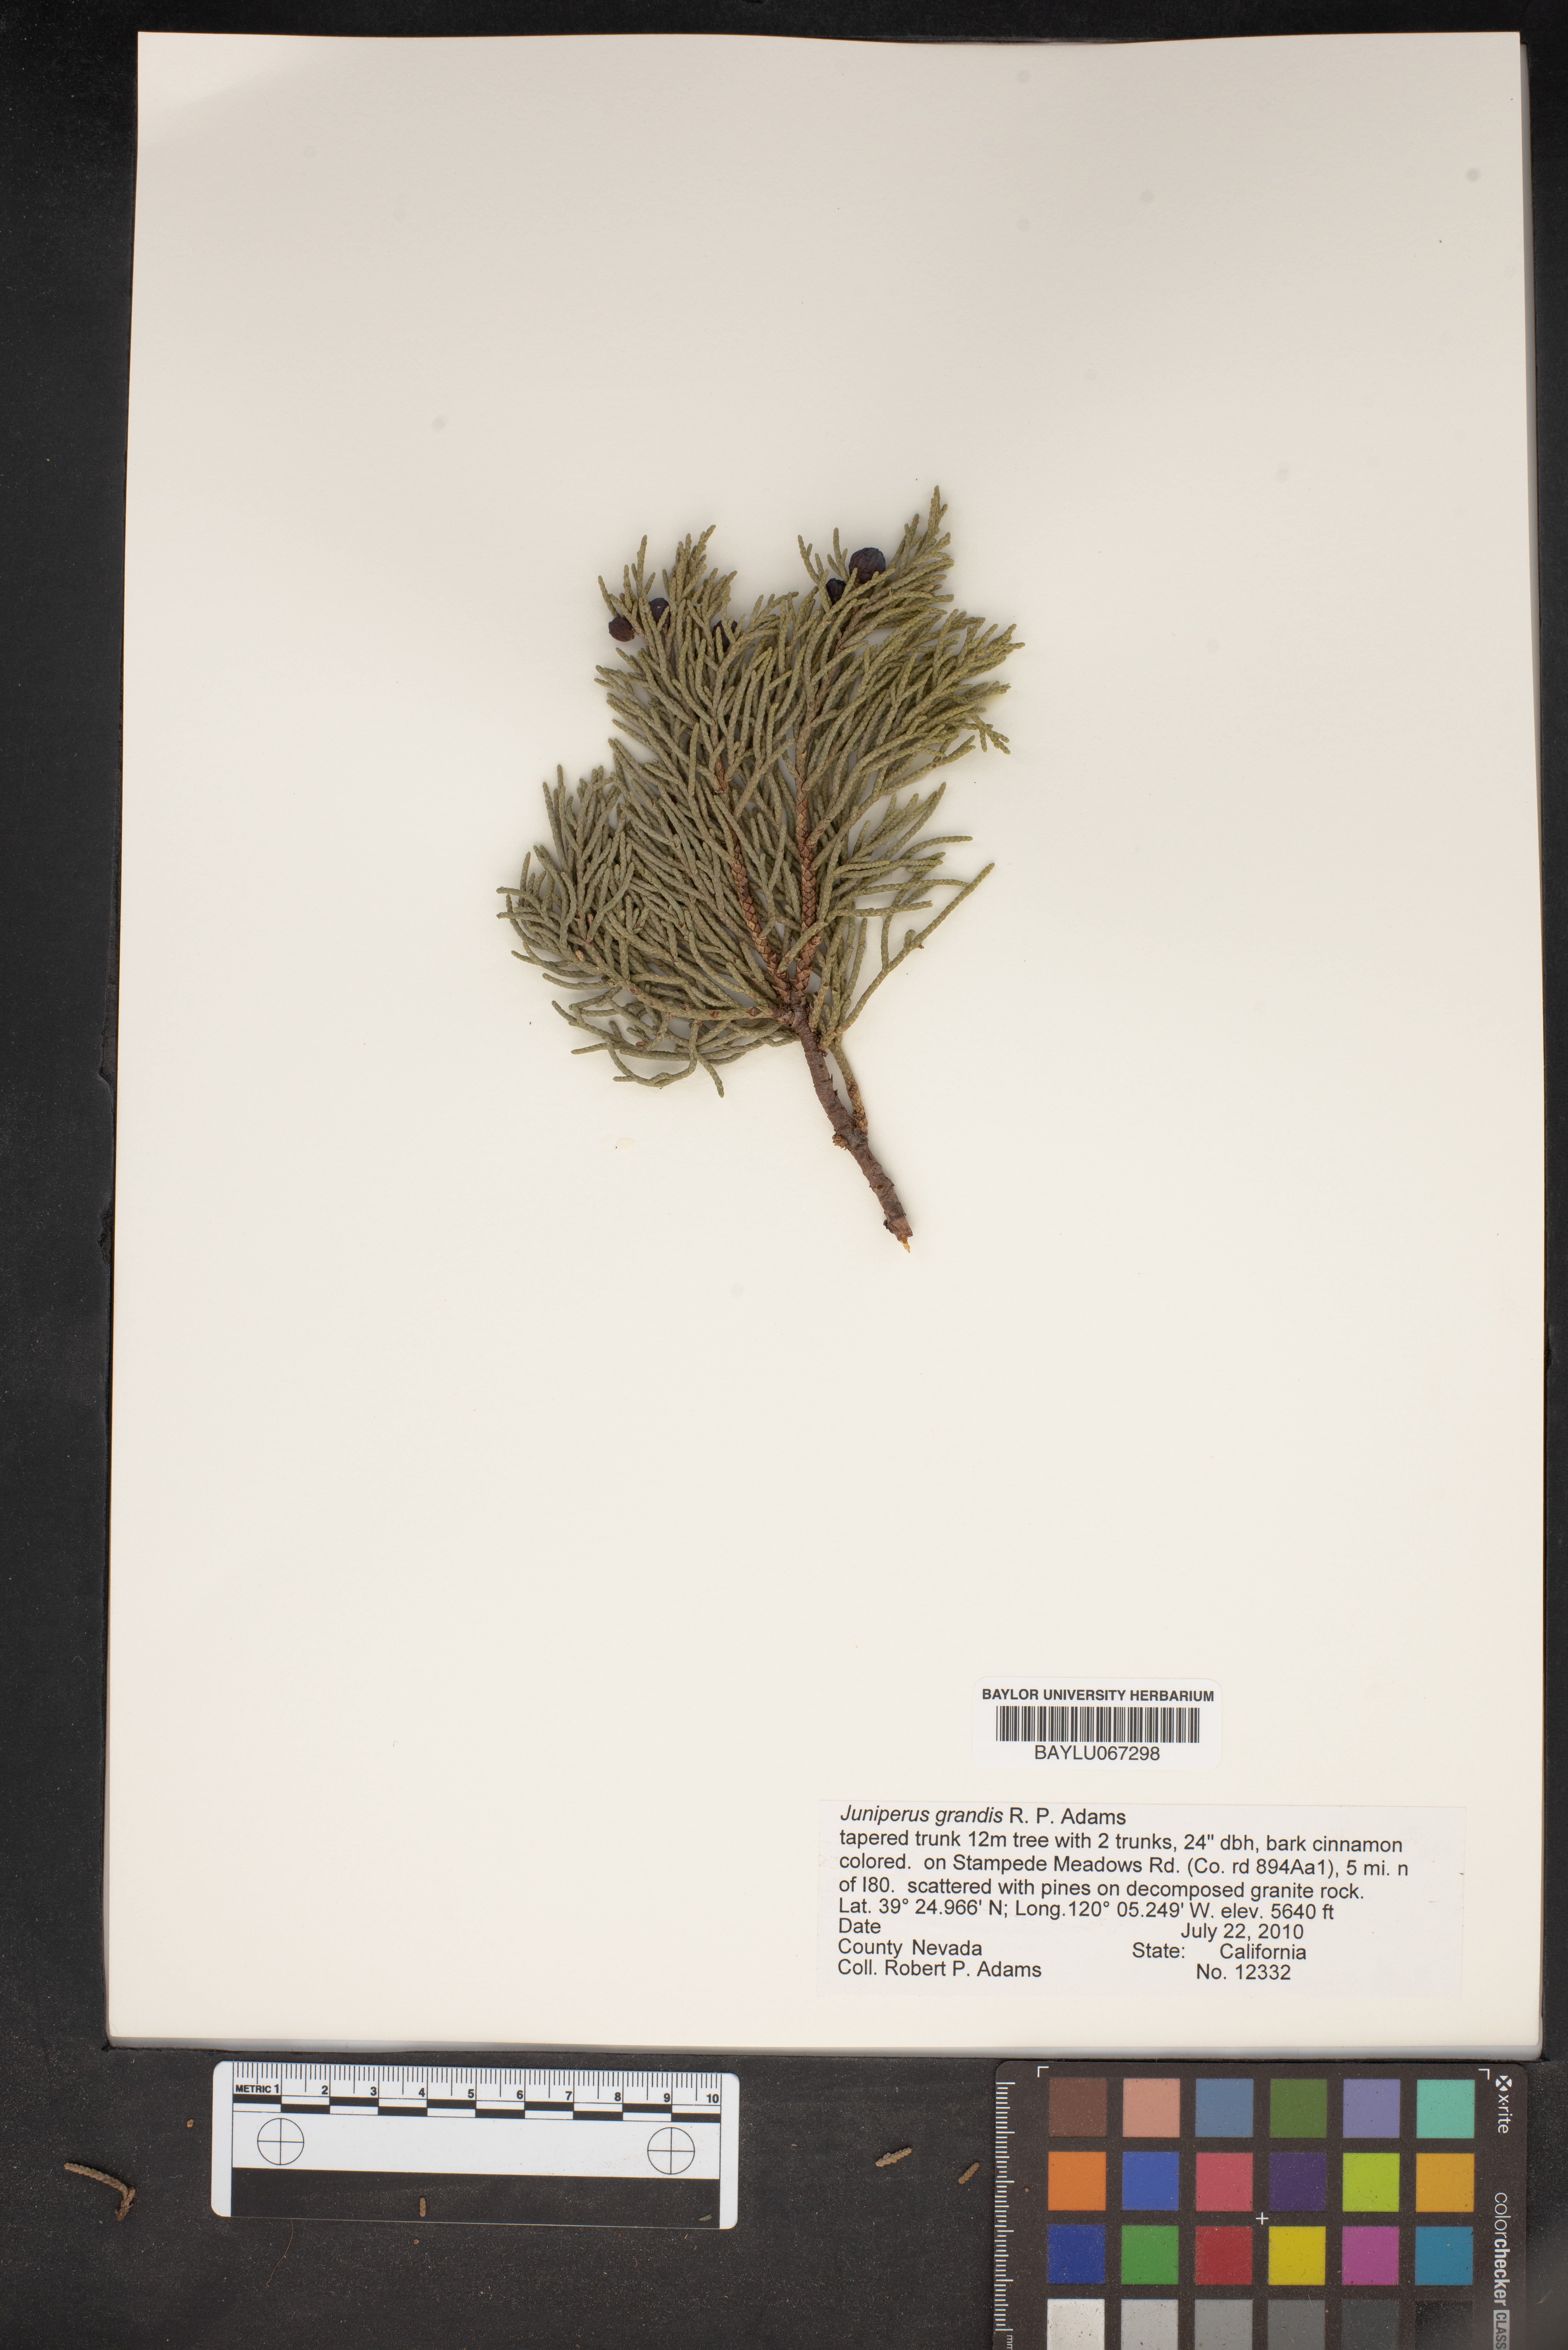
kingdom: Plantae
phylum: Tracheophyta
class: Pinopsida
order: Pinales
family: Cupressaceae
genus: Juniperus
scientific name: Juniperus occidentalis
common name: Western juniper
